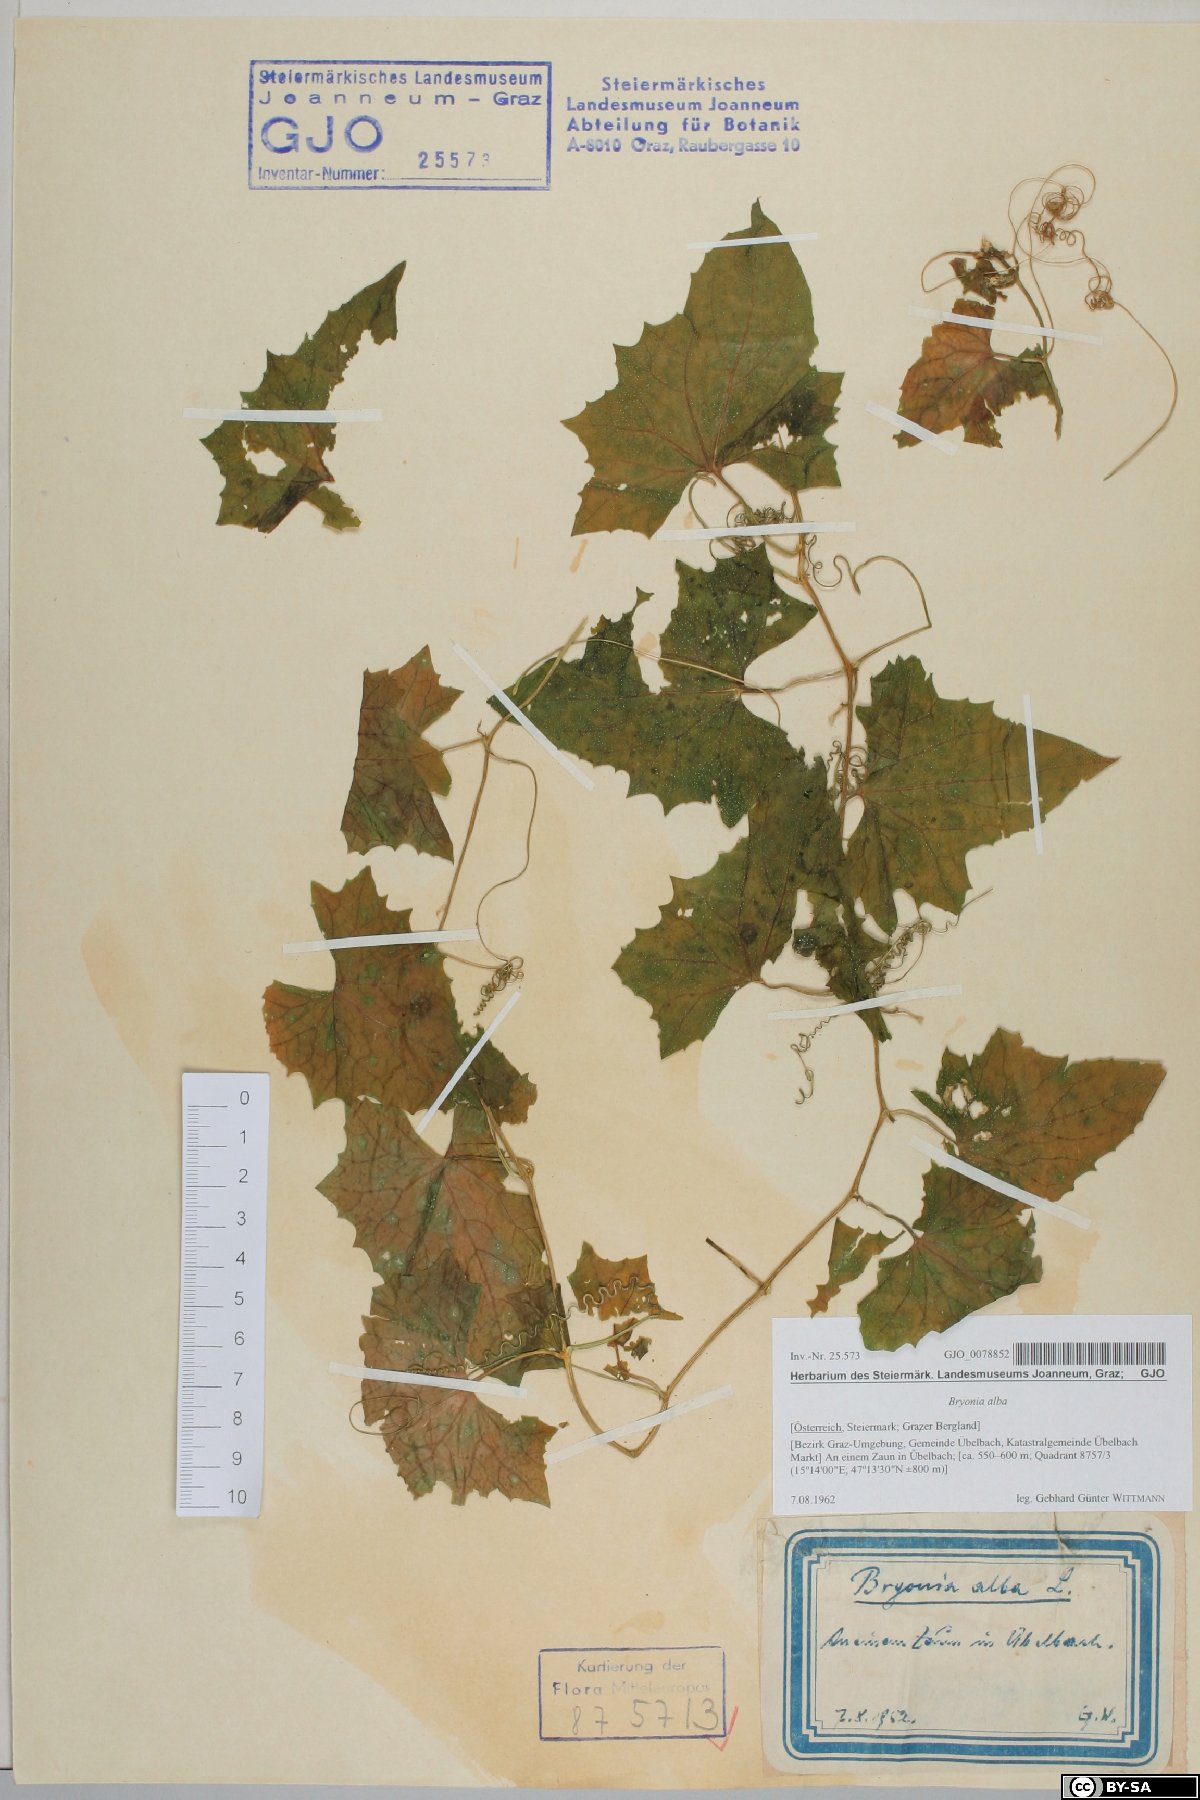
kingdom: Plantae
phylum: Tracheophyta
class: Magnoliopsida
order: Cucurbitales
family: Cucurbitaceae
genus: Bryonia
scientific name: Bryonia alba
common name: White bryony
